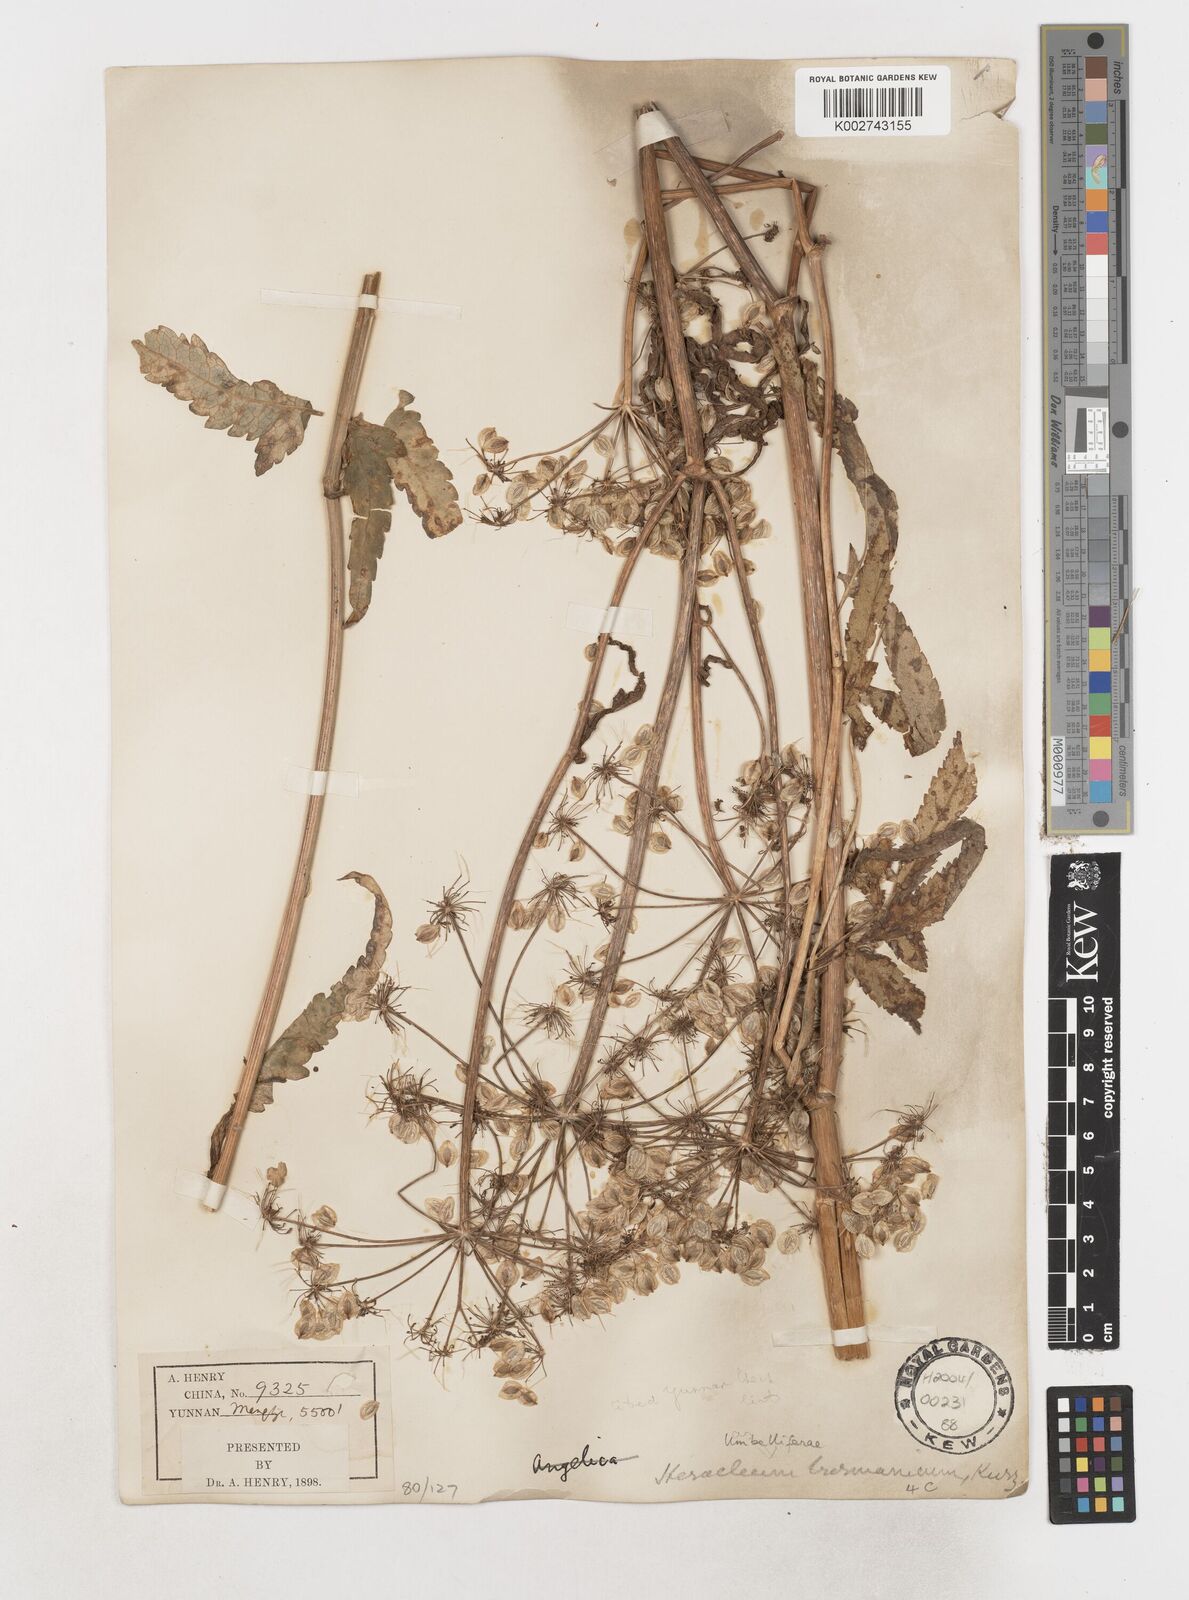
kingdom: Plantae
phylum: Tracheophyta
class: Magnoliopsida
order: Apiales
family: Apiaceae
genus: Tetrataenium
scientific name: Tetrataenium birmanicum
